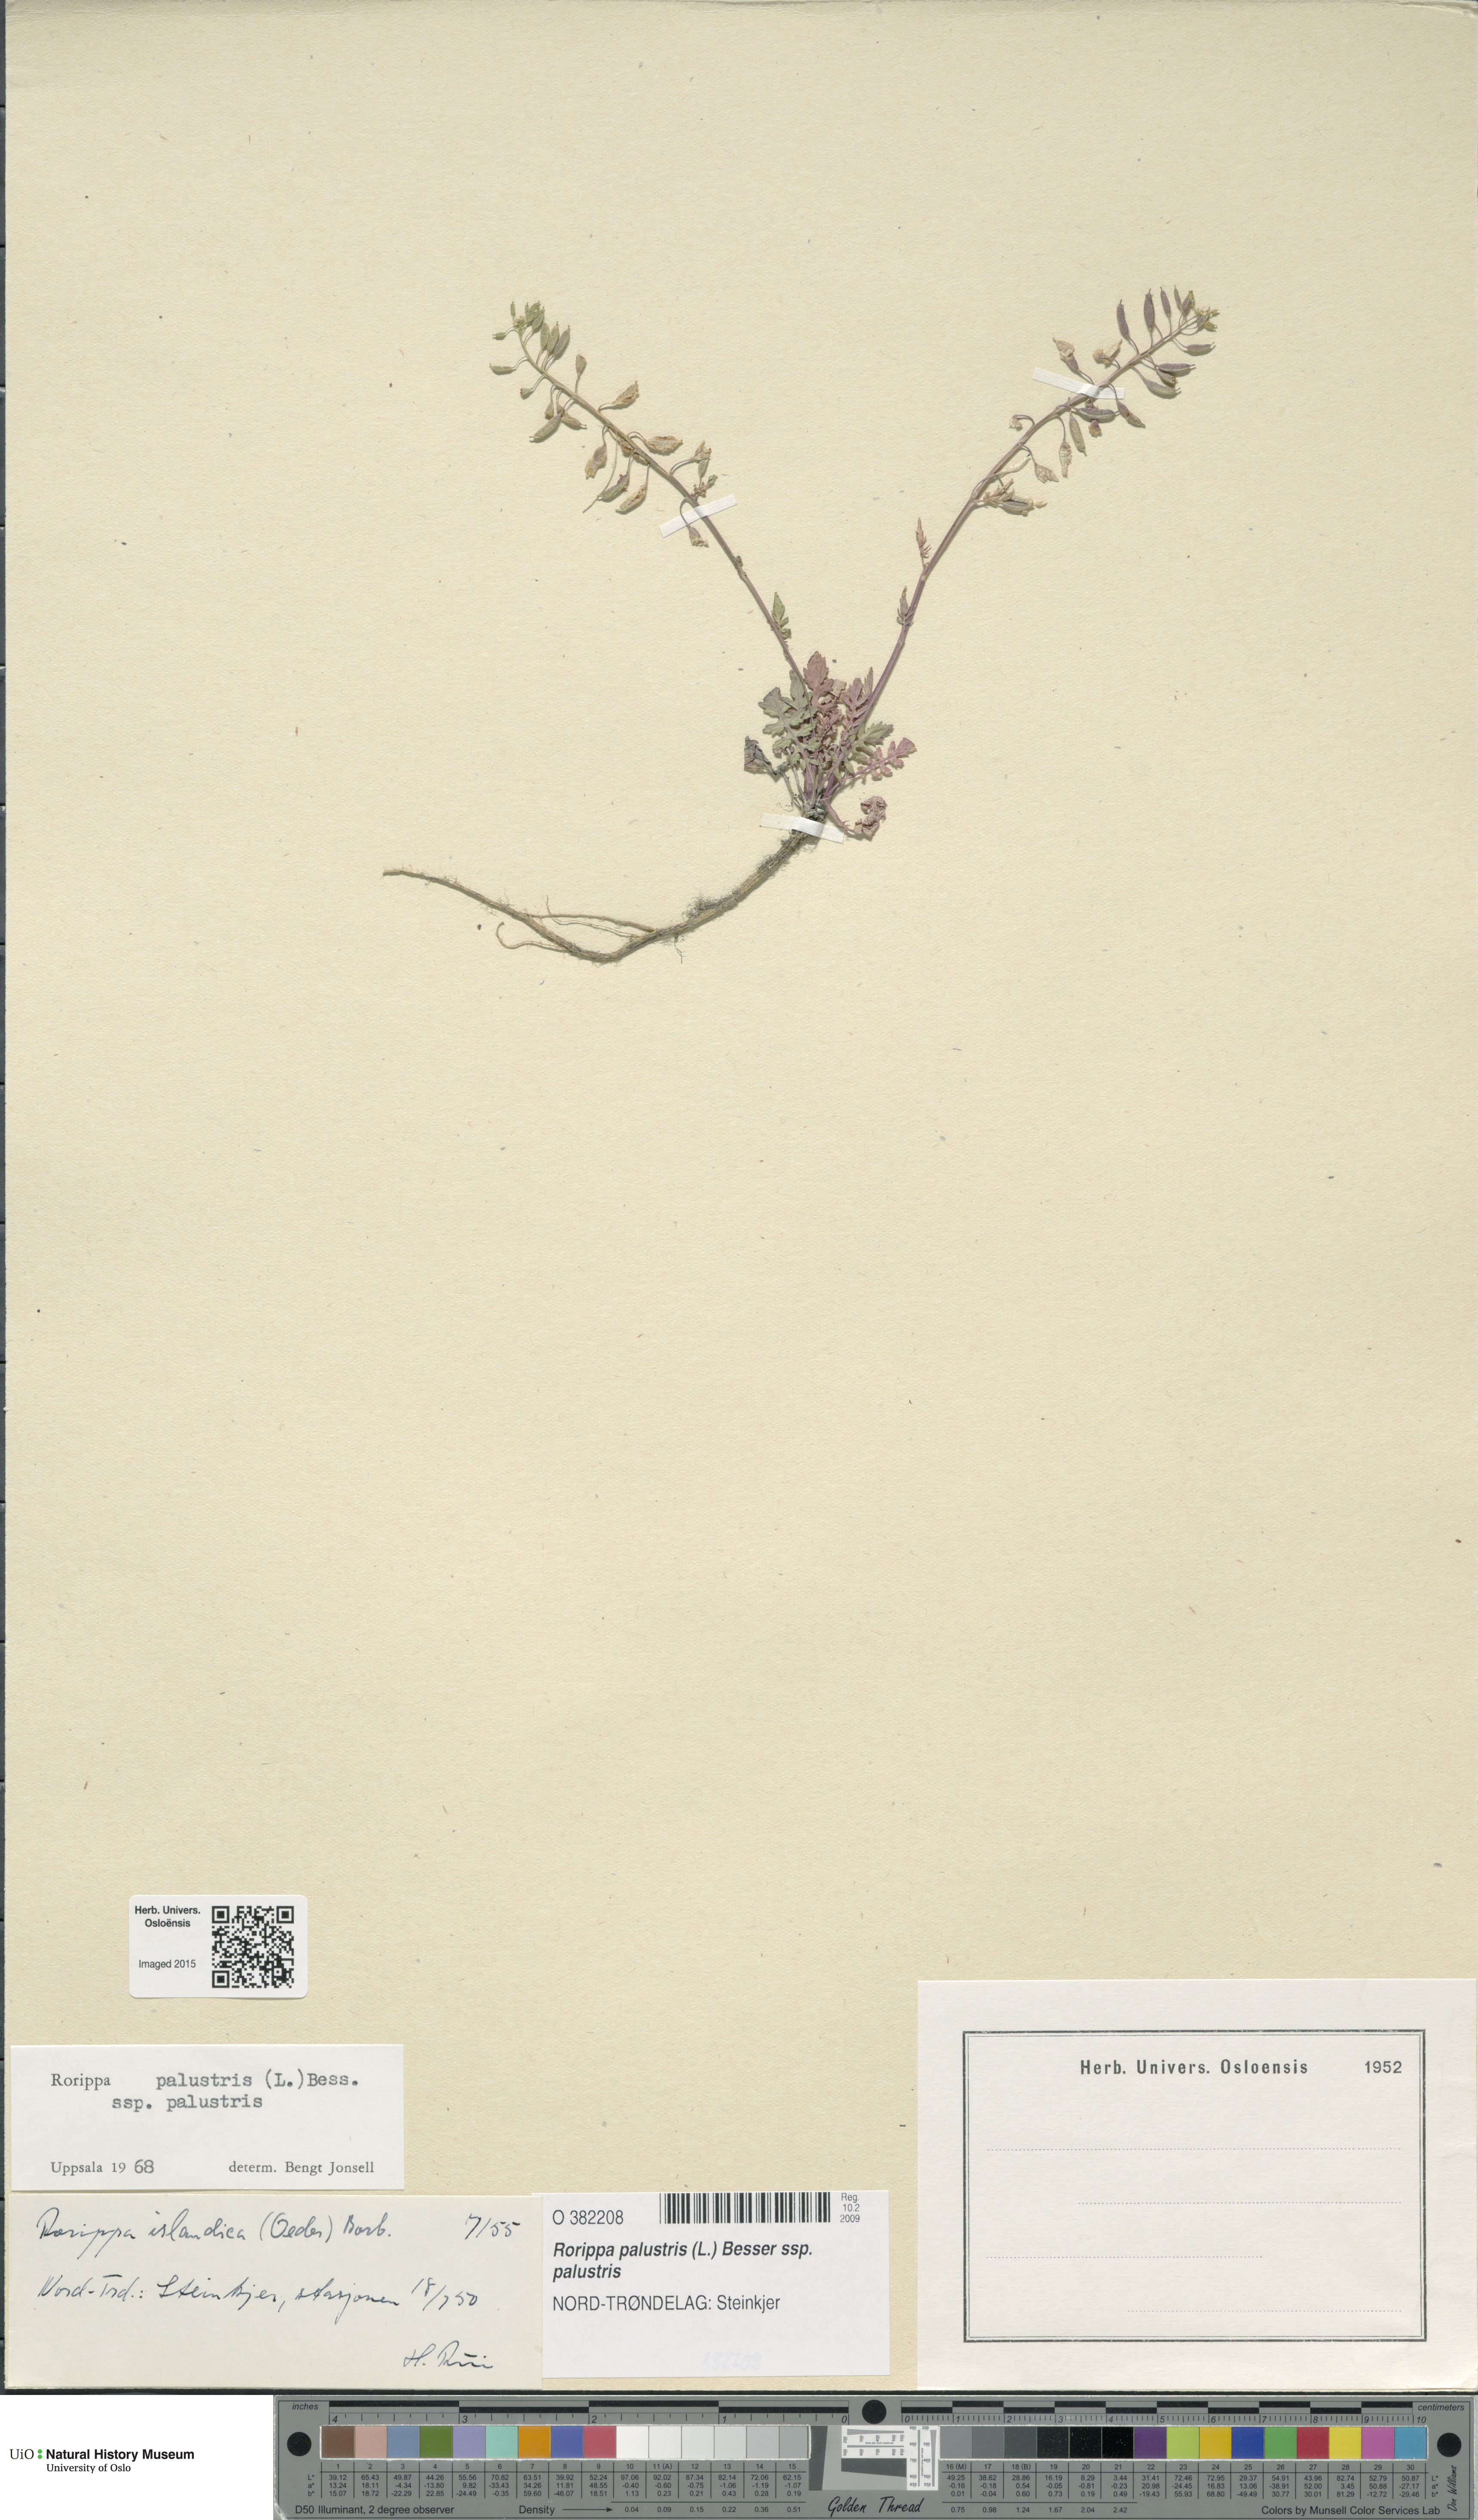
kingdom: Plantae
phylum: Tracheophyta
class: Magnoliopsida
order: Brassicales
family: Brassicaceae
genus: Rorippa
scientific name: Rorippa palustris
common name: Marsh yellow-cress
